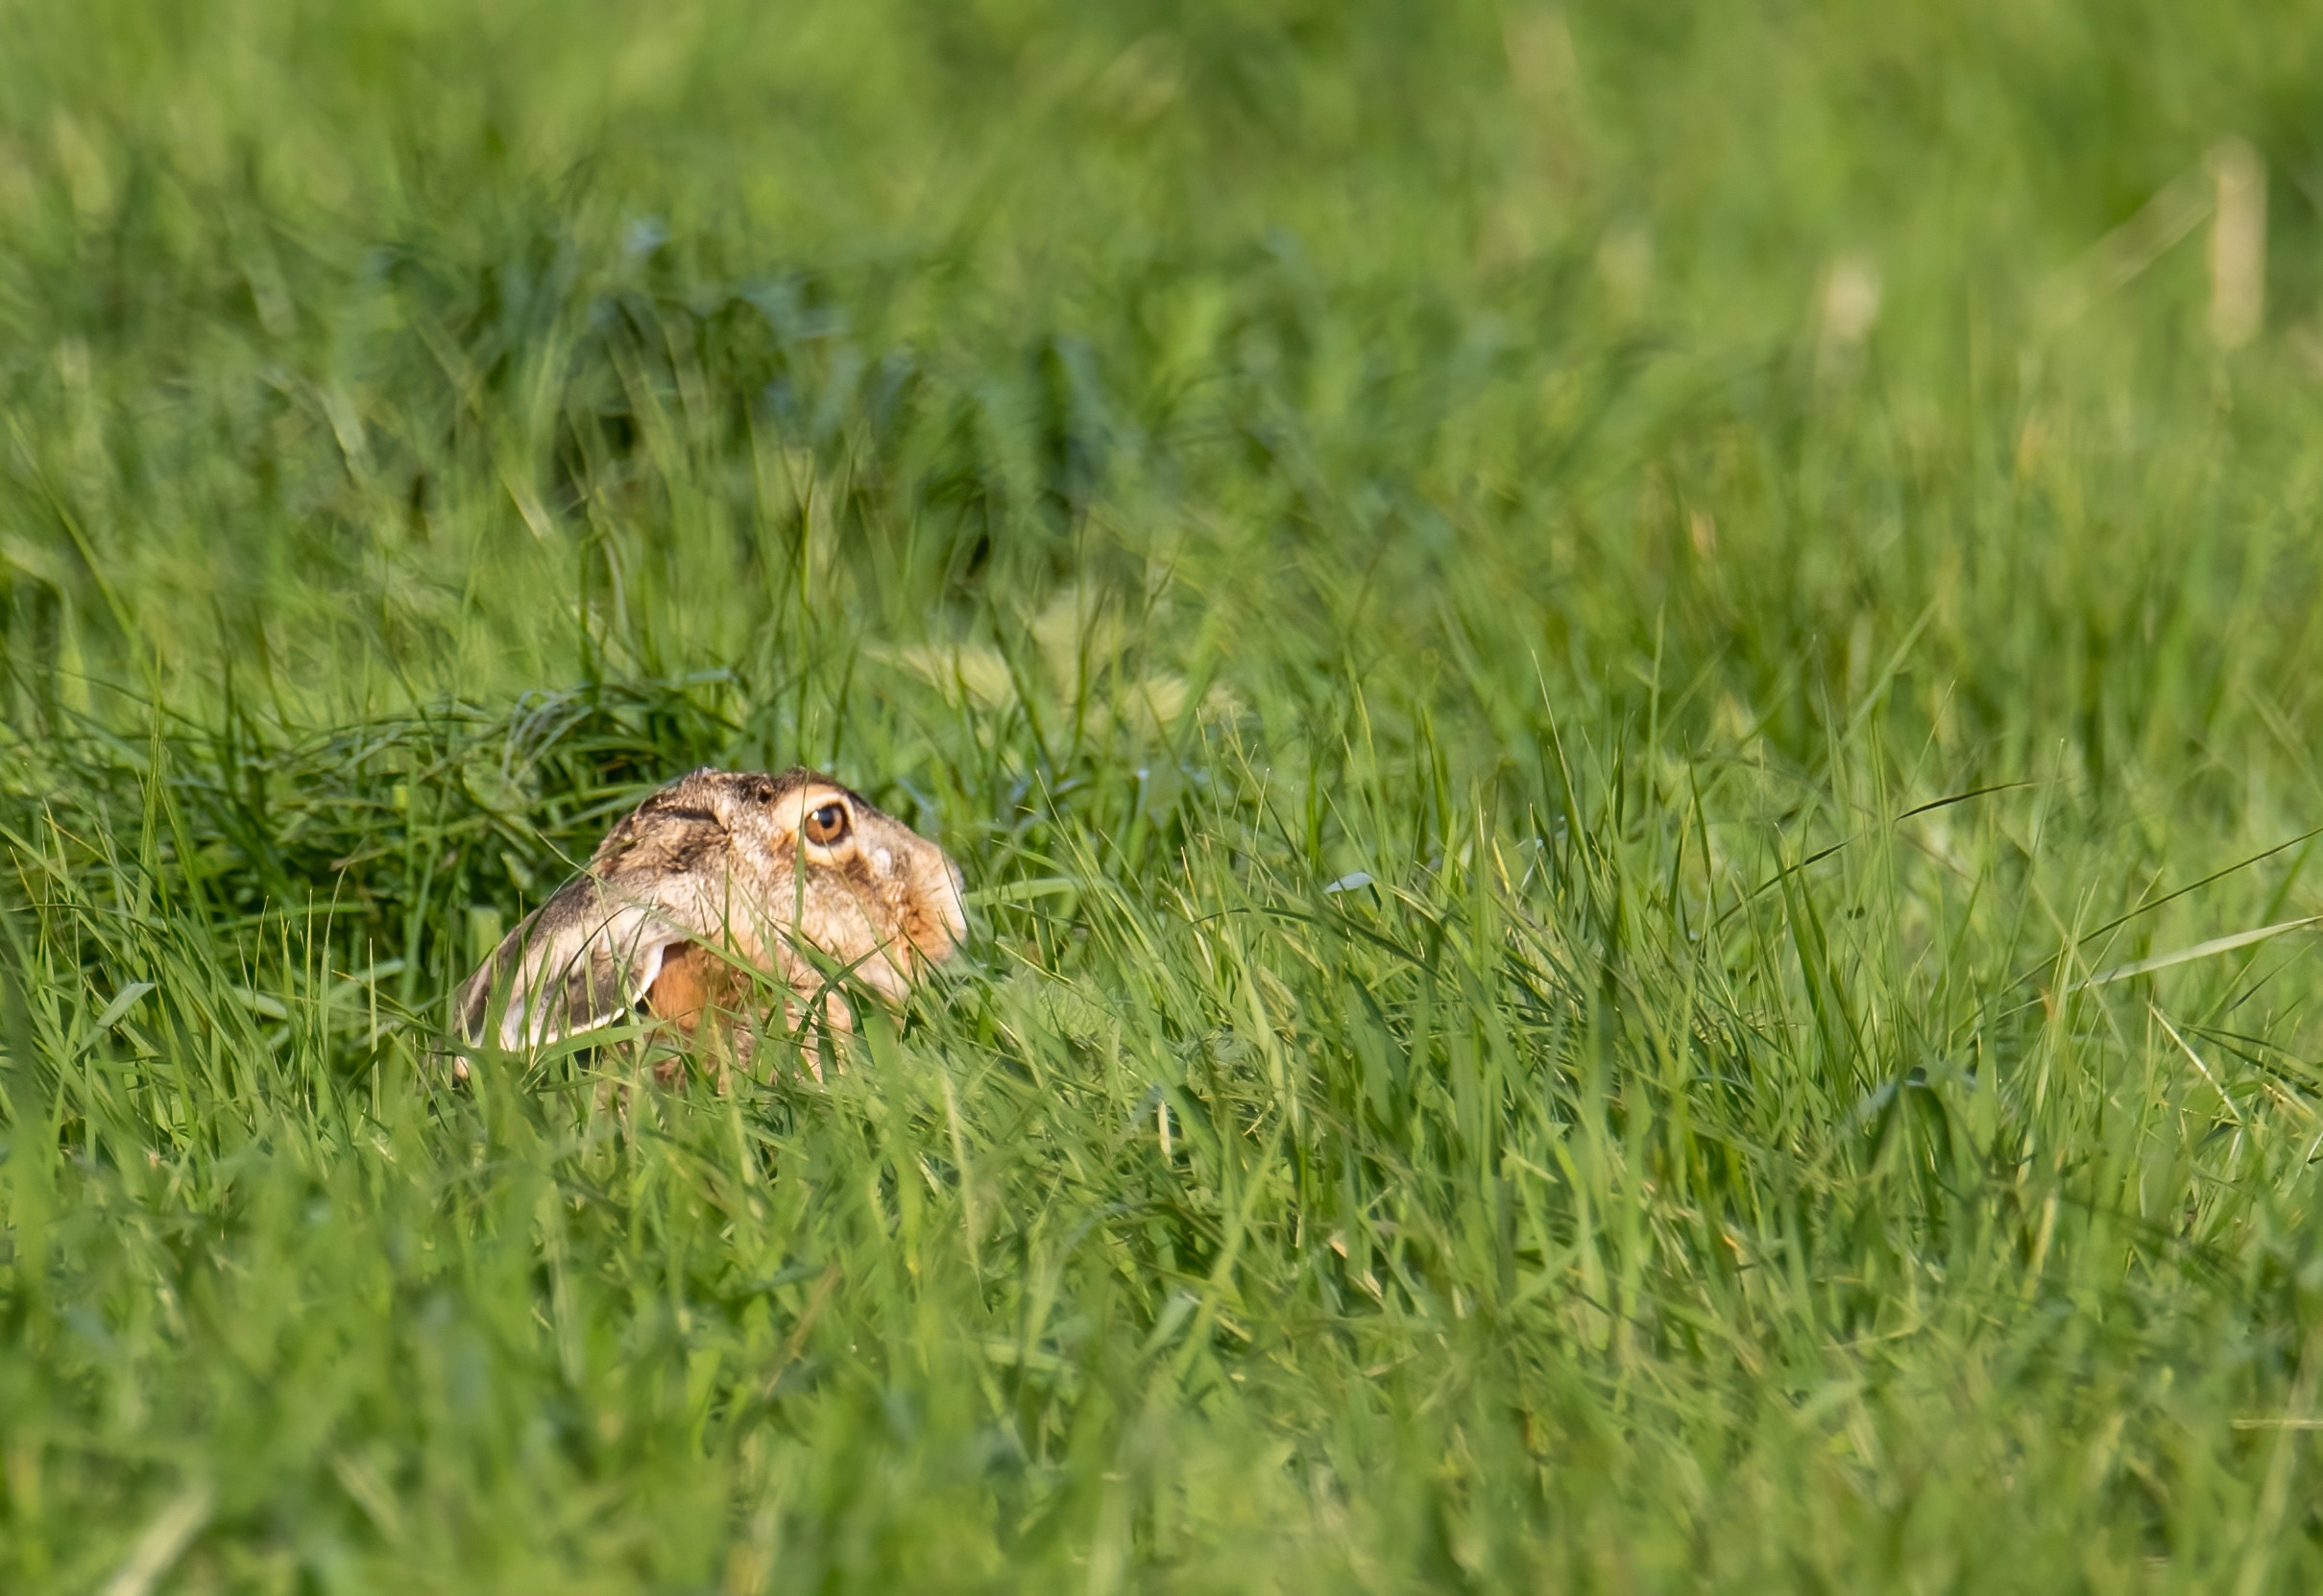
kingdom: Animalia
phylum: Chordata
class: Mammalia
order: Lagomorpha
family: Leporidae
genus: Lepus
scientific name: Lepus europaeus
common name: Hare
